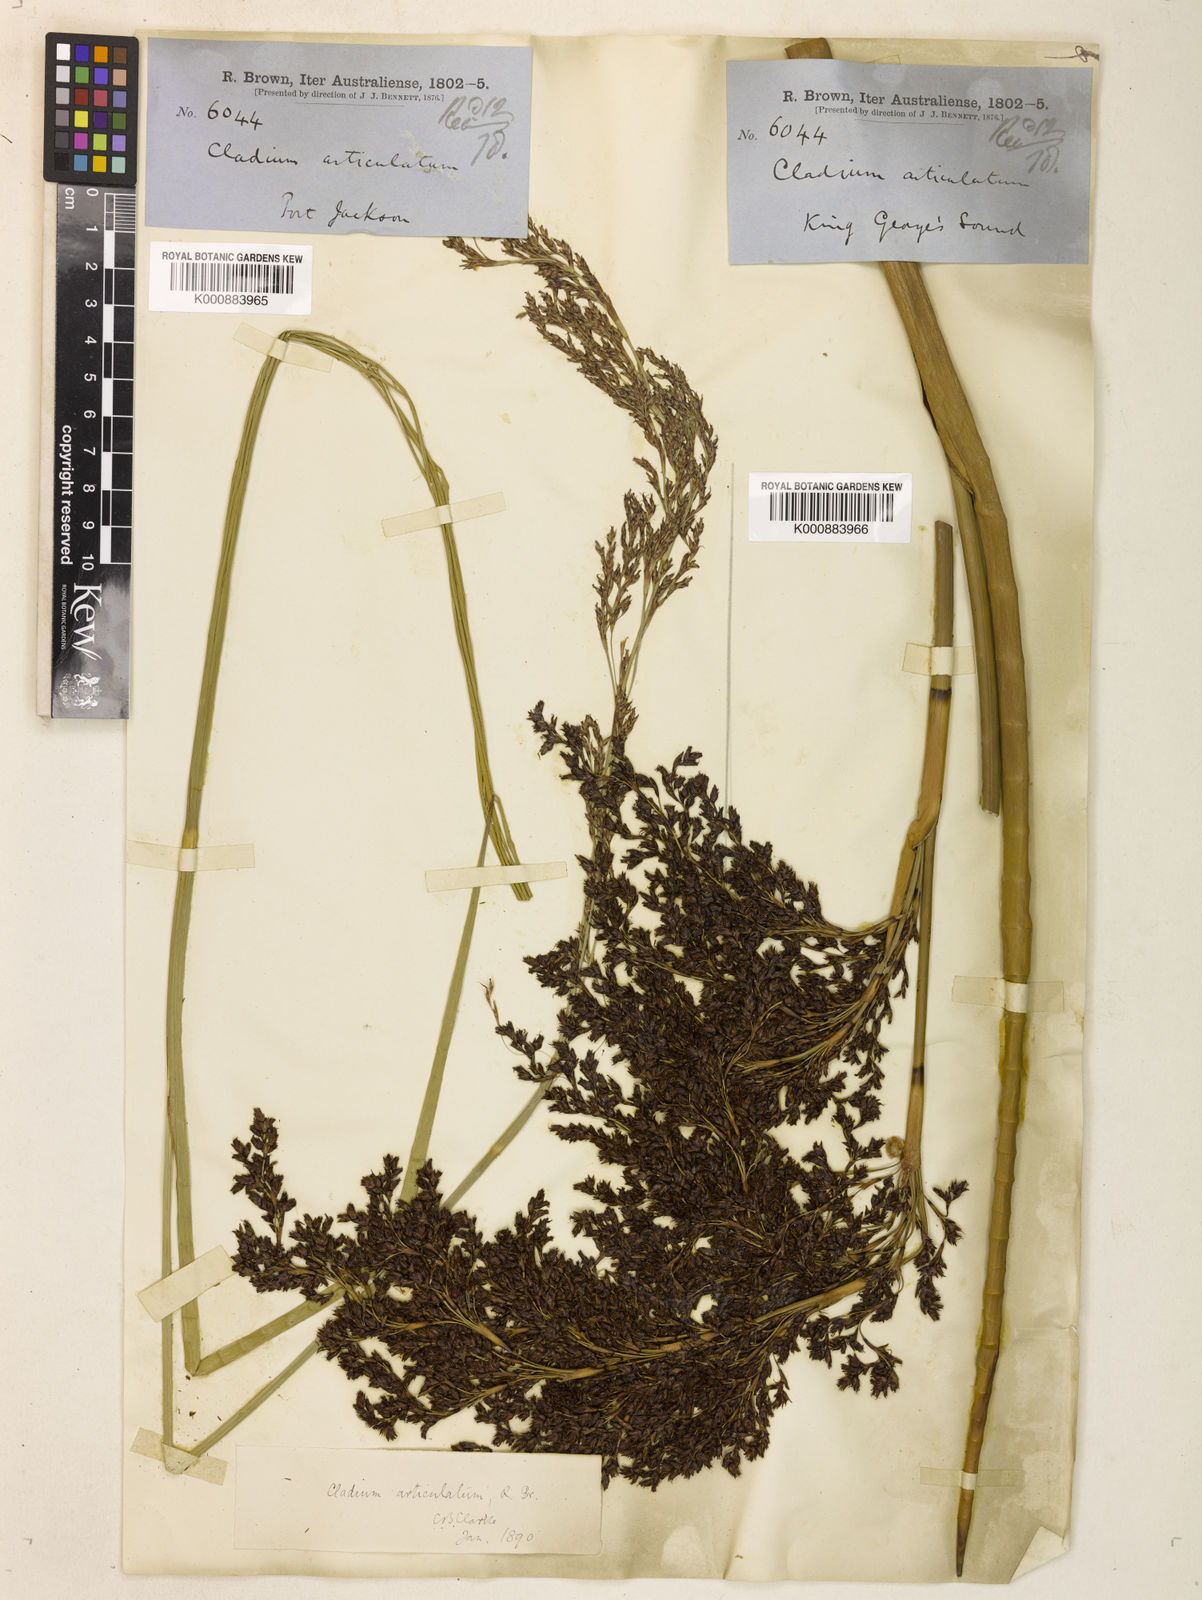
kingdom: Plantae
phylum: Tracheophyta
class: Liliopsida
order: Poales
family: Cyperaceae
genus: Machaerina
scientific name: Machaerina articulata
